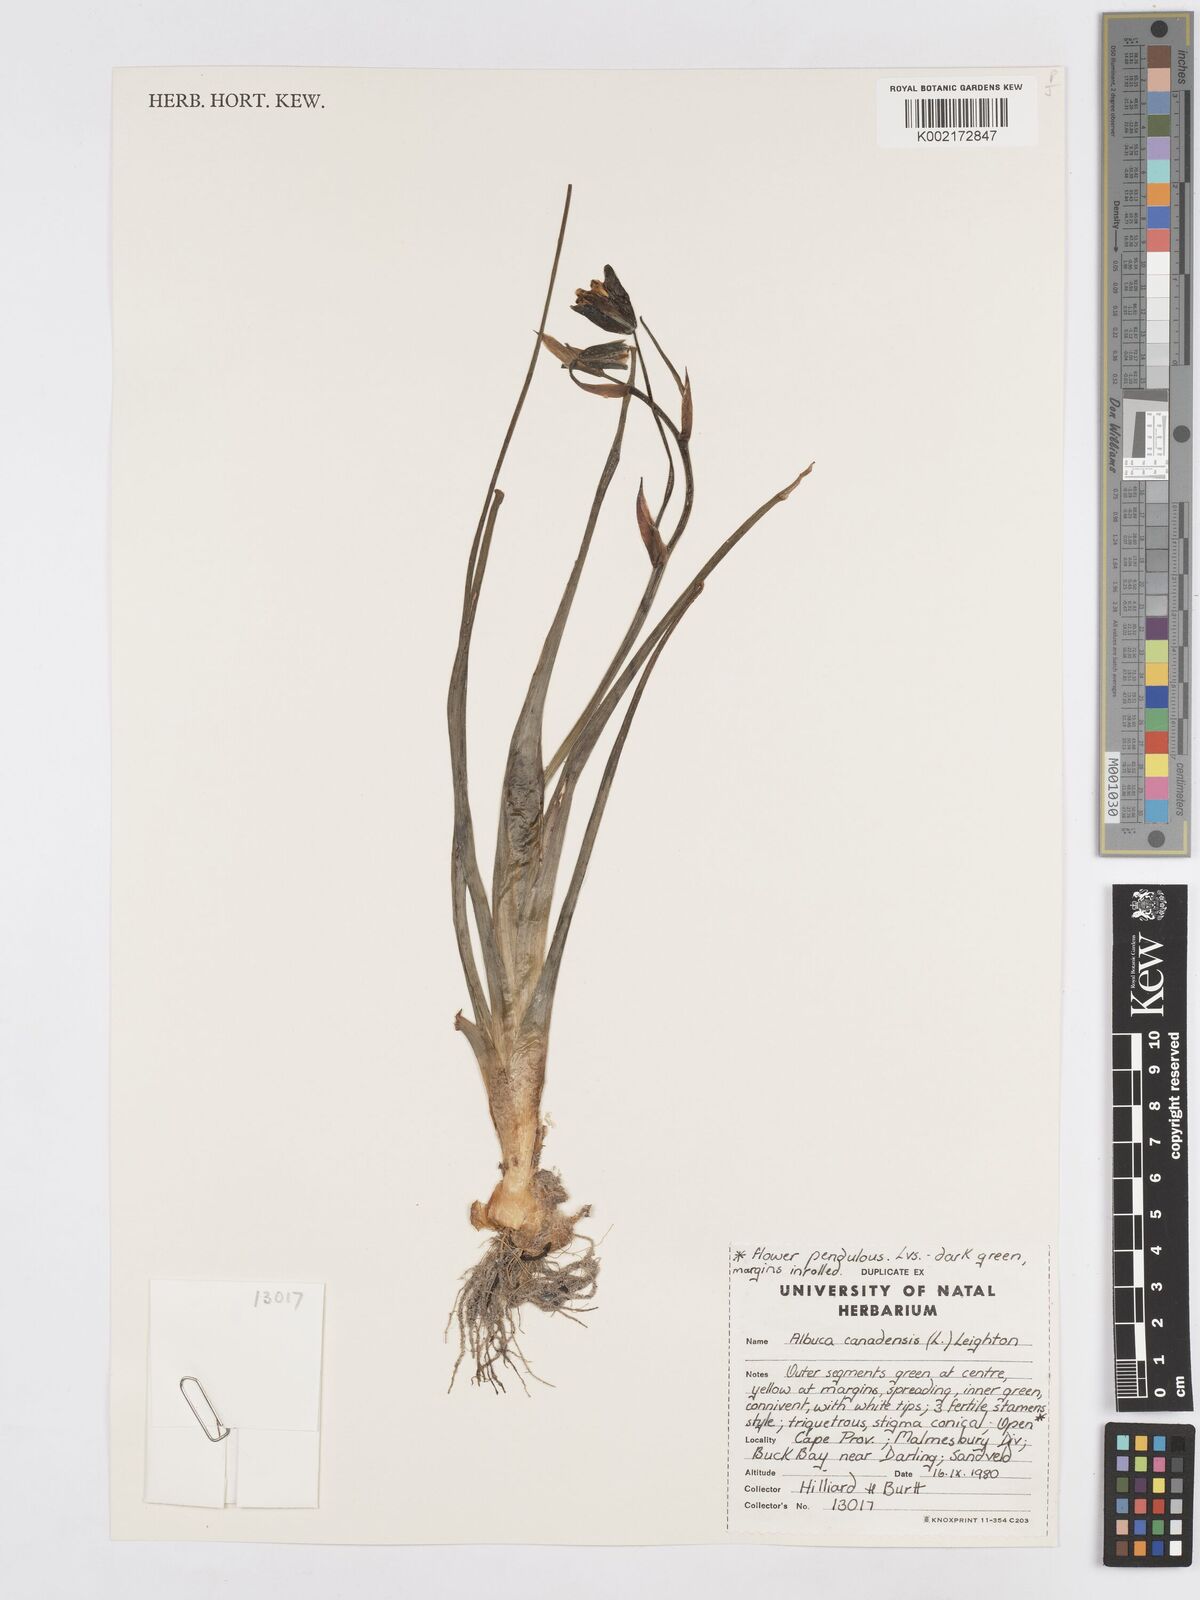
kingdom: Plantae
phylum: Tracheophyta
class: Liliopsida
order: Asparagales
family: Asparagaceae
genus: Albuca
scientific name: Albuca canadensis
